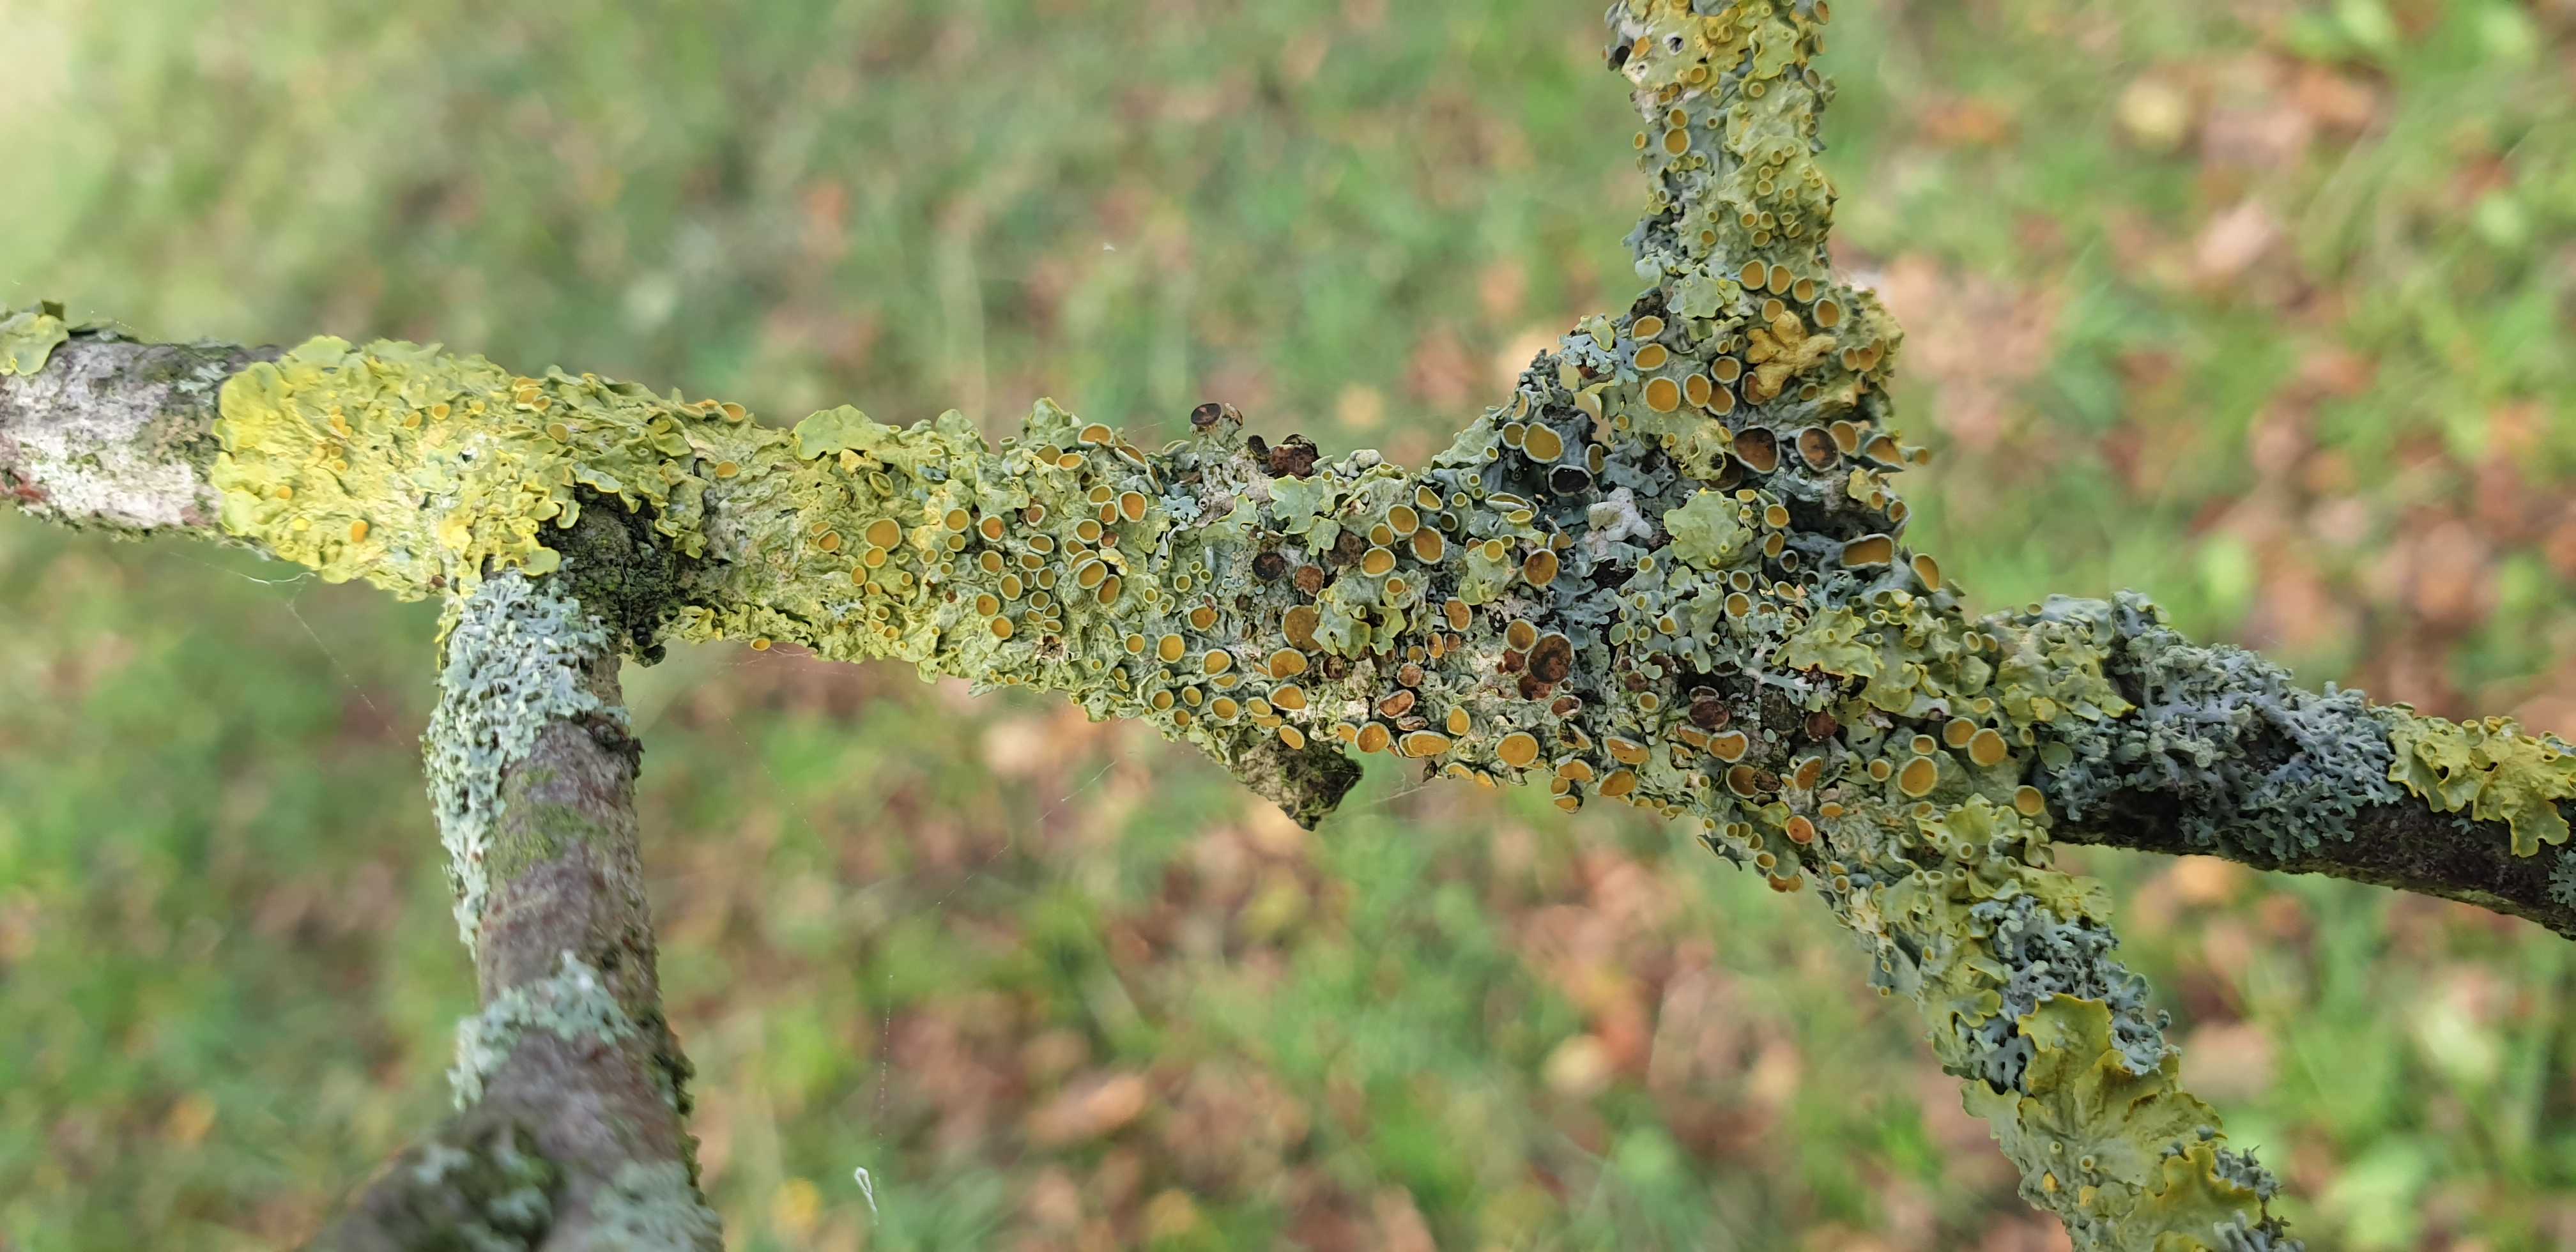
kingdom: Fungi
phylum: Ascomycota
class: Lecanoromycetes
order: Teloschistales
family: Teloschistaceae
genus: Xanthoria
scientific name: Xanthoria parietina
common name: almindelig væggelav
